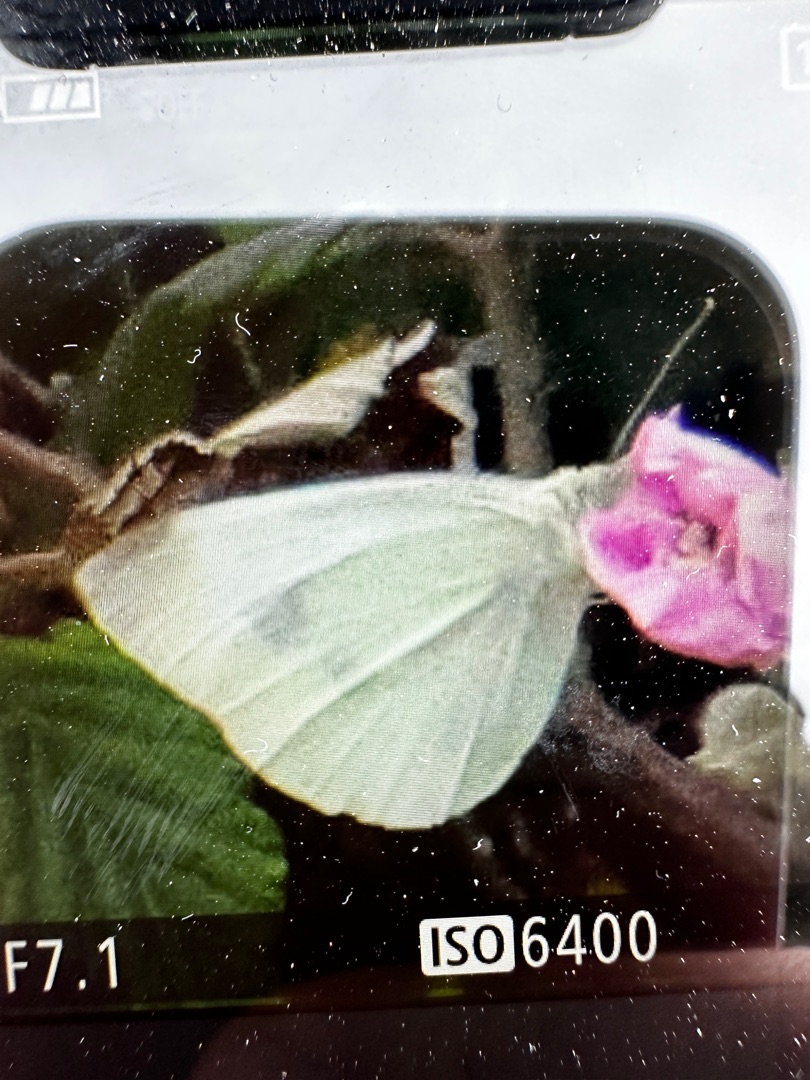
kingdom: Animalia
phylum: Arthropoda
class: Insecta
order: Lepidoptera
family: Pieridae
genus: Pieris
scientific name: Pieris rapae
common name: Lille kålsommerfugl
